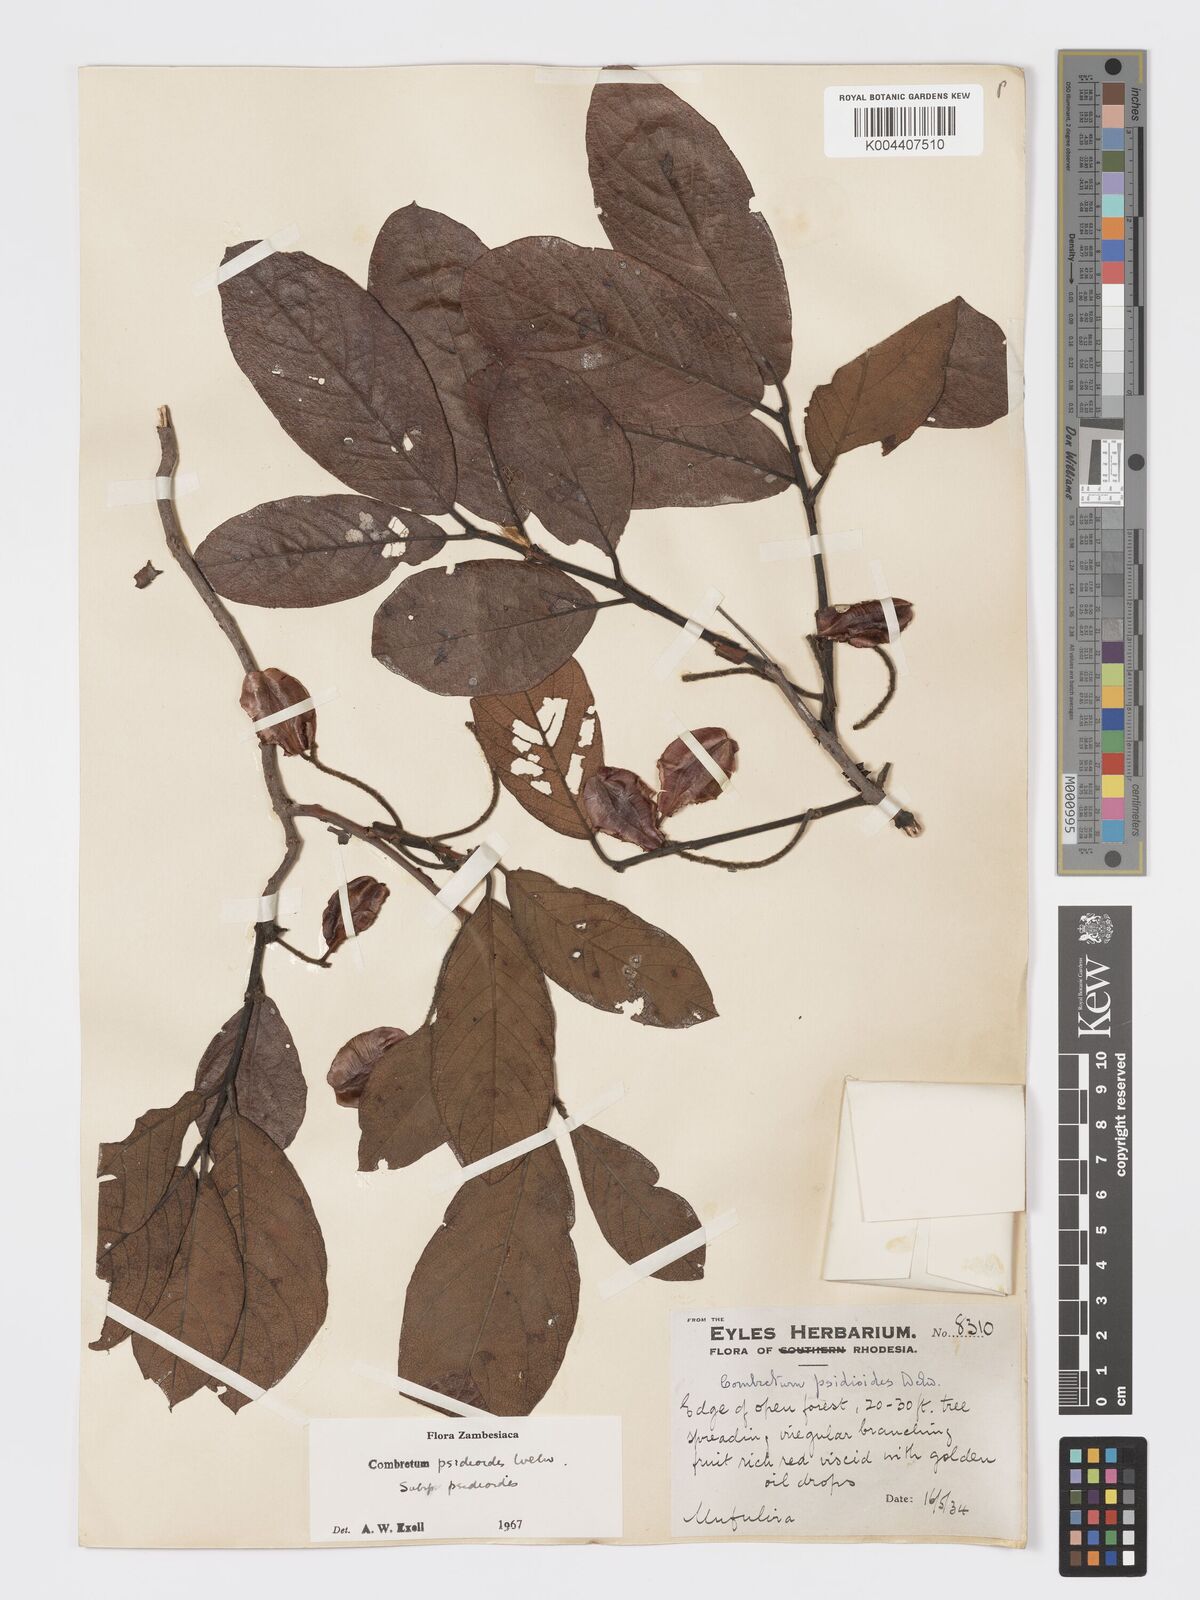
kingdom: Plantae
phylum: Tracheophyta
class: Magnoliopsida
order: Myrtales
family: Combretaceae
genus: Combretum
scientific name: Combretum psidioides
